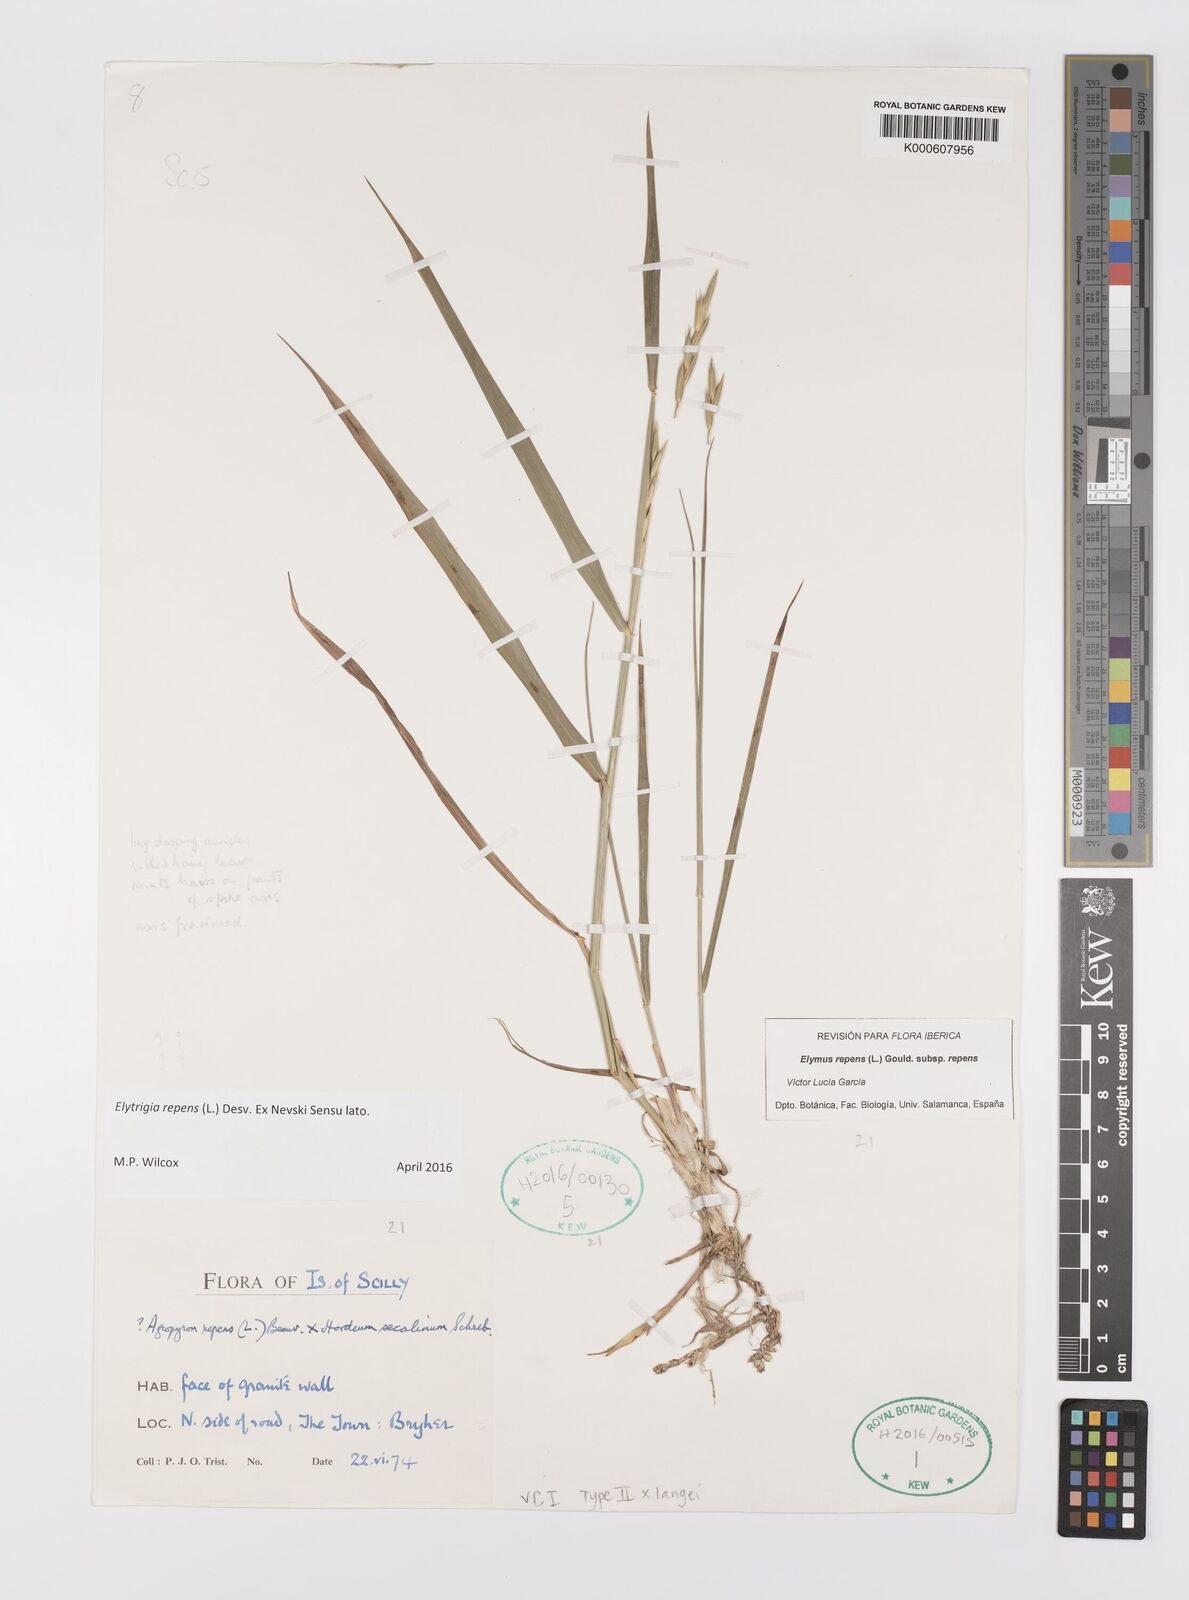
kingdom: Plantae
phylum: Tracheophyta
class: Liliopsida
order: Poales
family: Poaceae
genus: Elymus
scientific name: Elymus repens
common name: Quackgrass
